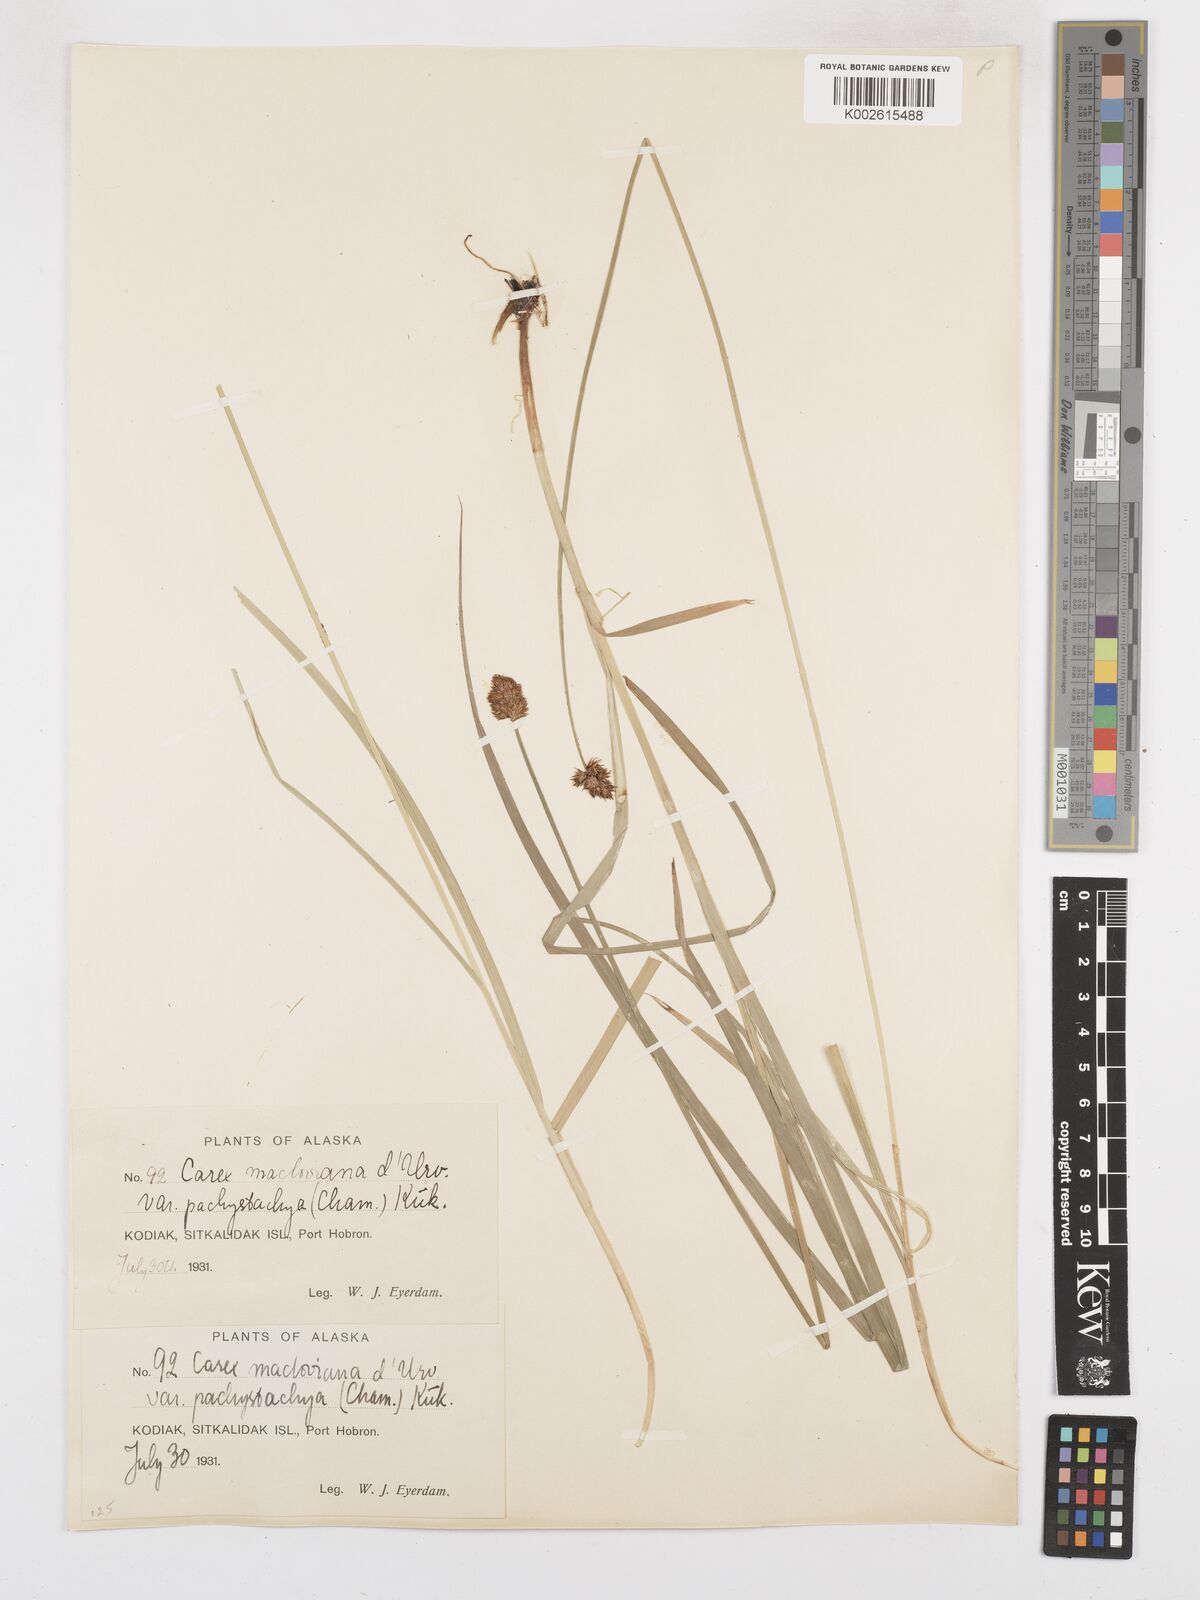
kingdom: Plantae
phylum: Tracheophyta
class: Liliopsida
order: Poales
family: Cyperaceae
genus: Carex
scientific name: Carex macloviana
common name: Falkland island sedge
